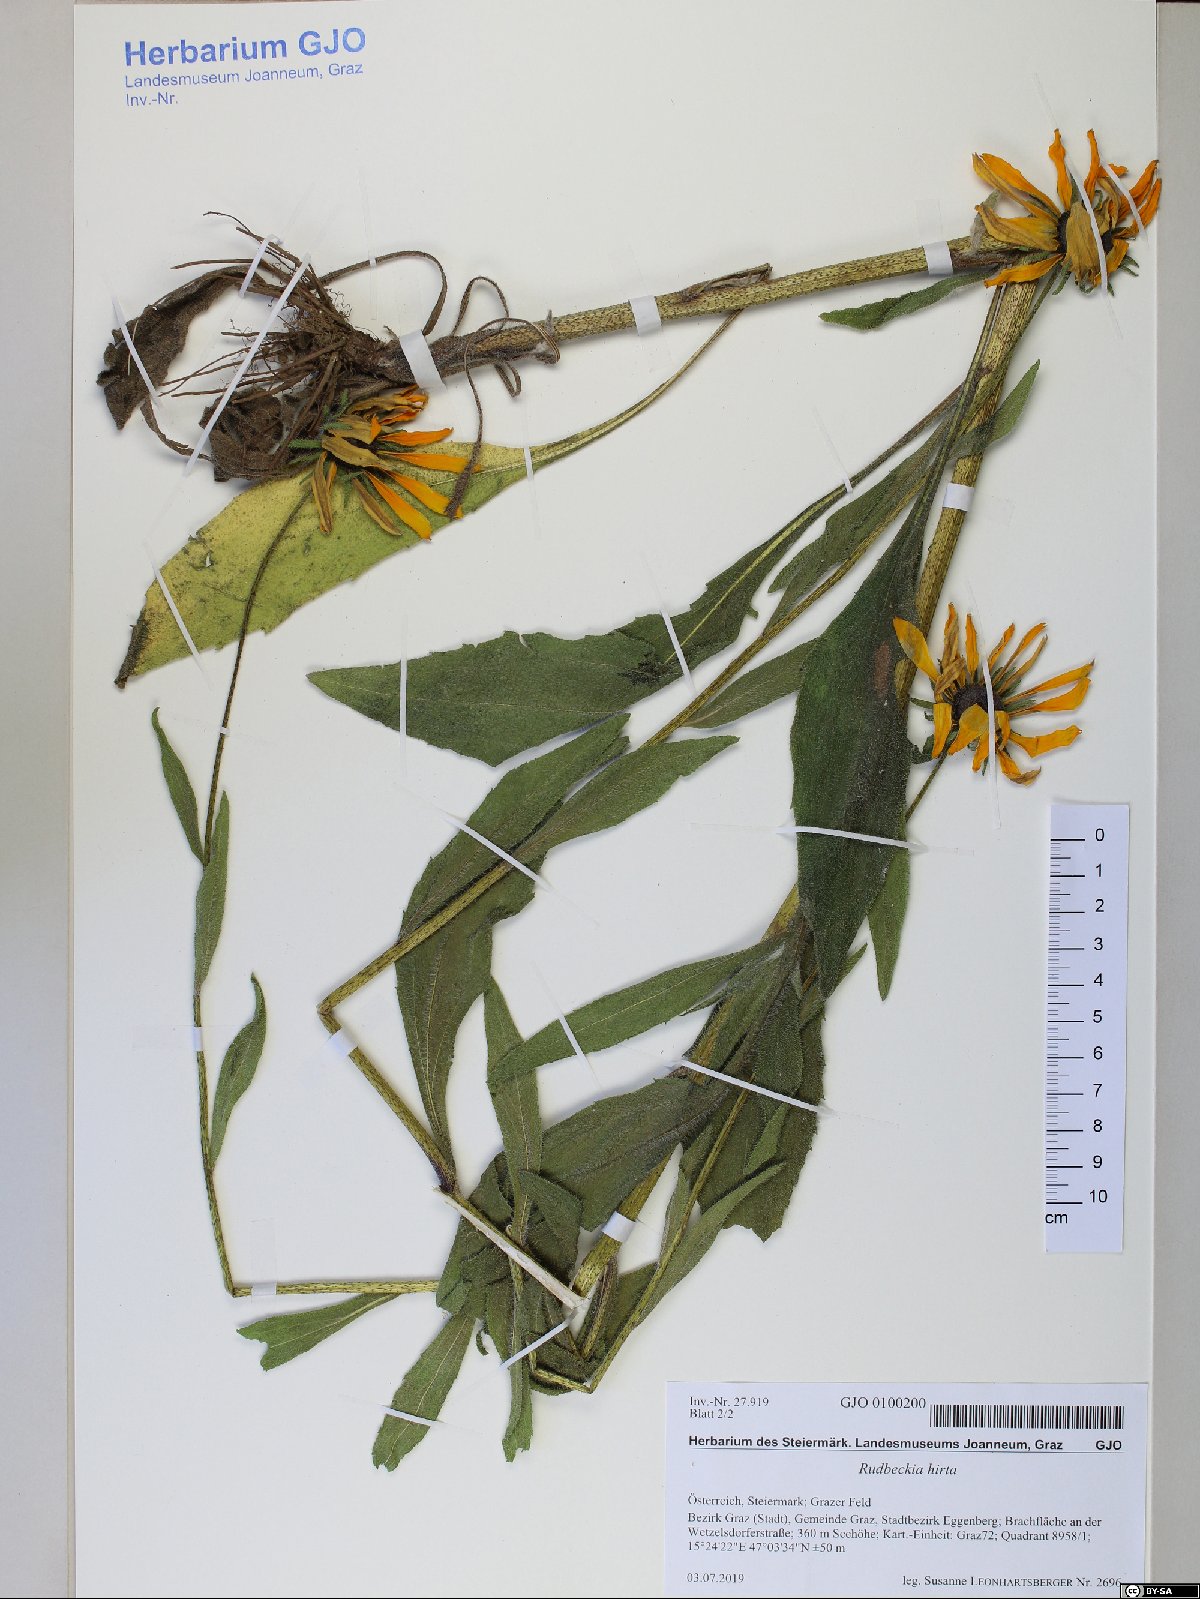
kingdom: Plantae
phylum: Tracheophyta
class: Magnoliopsida
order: Asterales
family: Asteraceae
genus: Rudbeckia
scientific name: Rudbeckia hirta
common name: Black-eyed-susan
